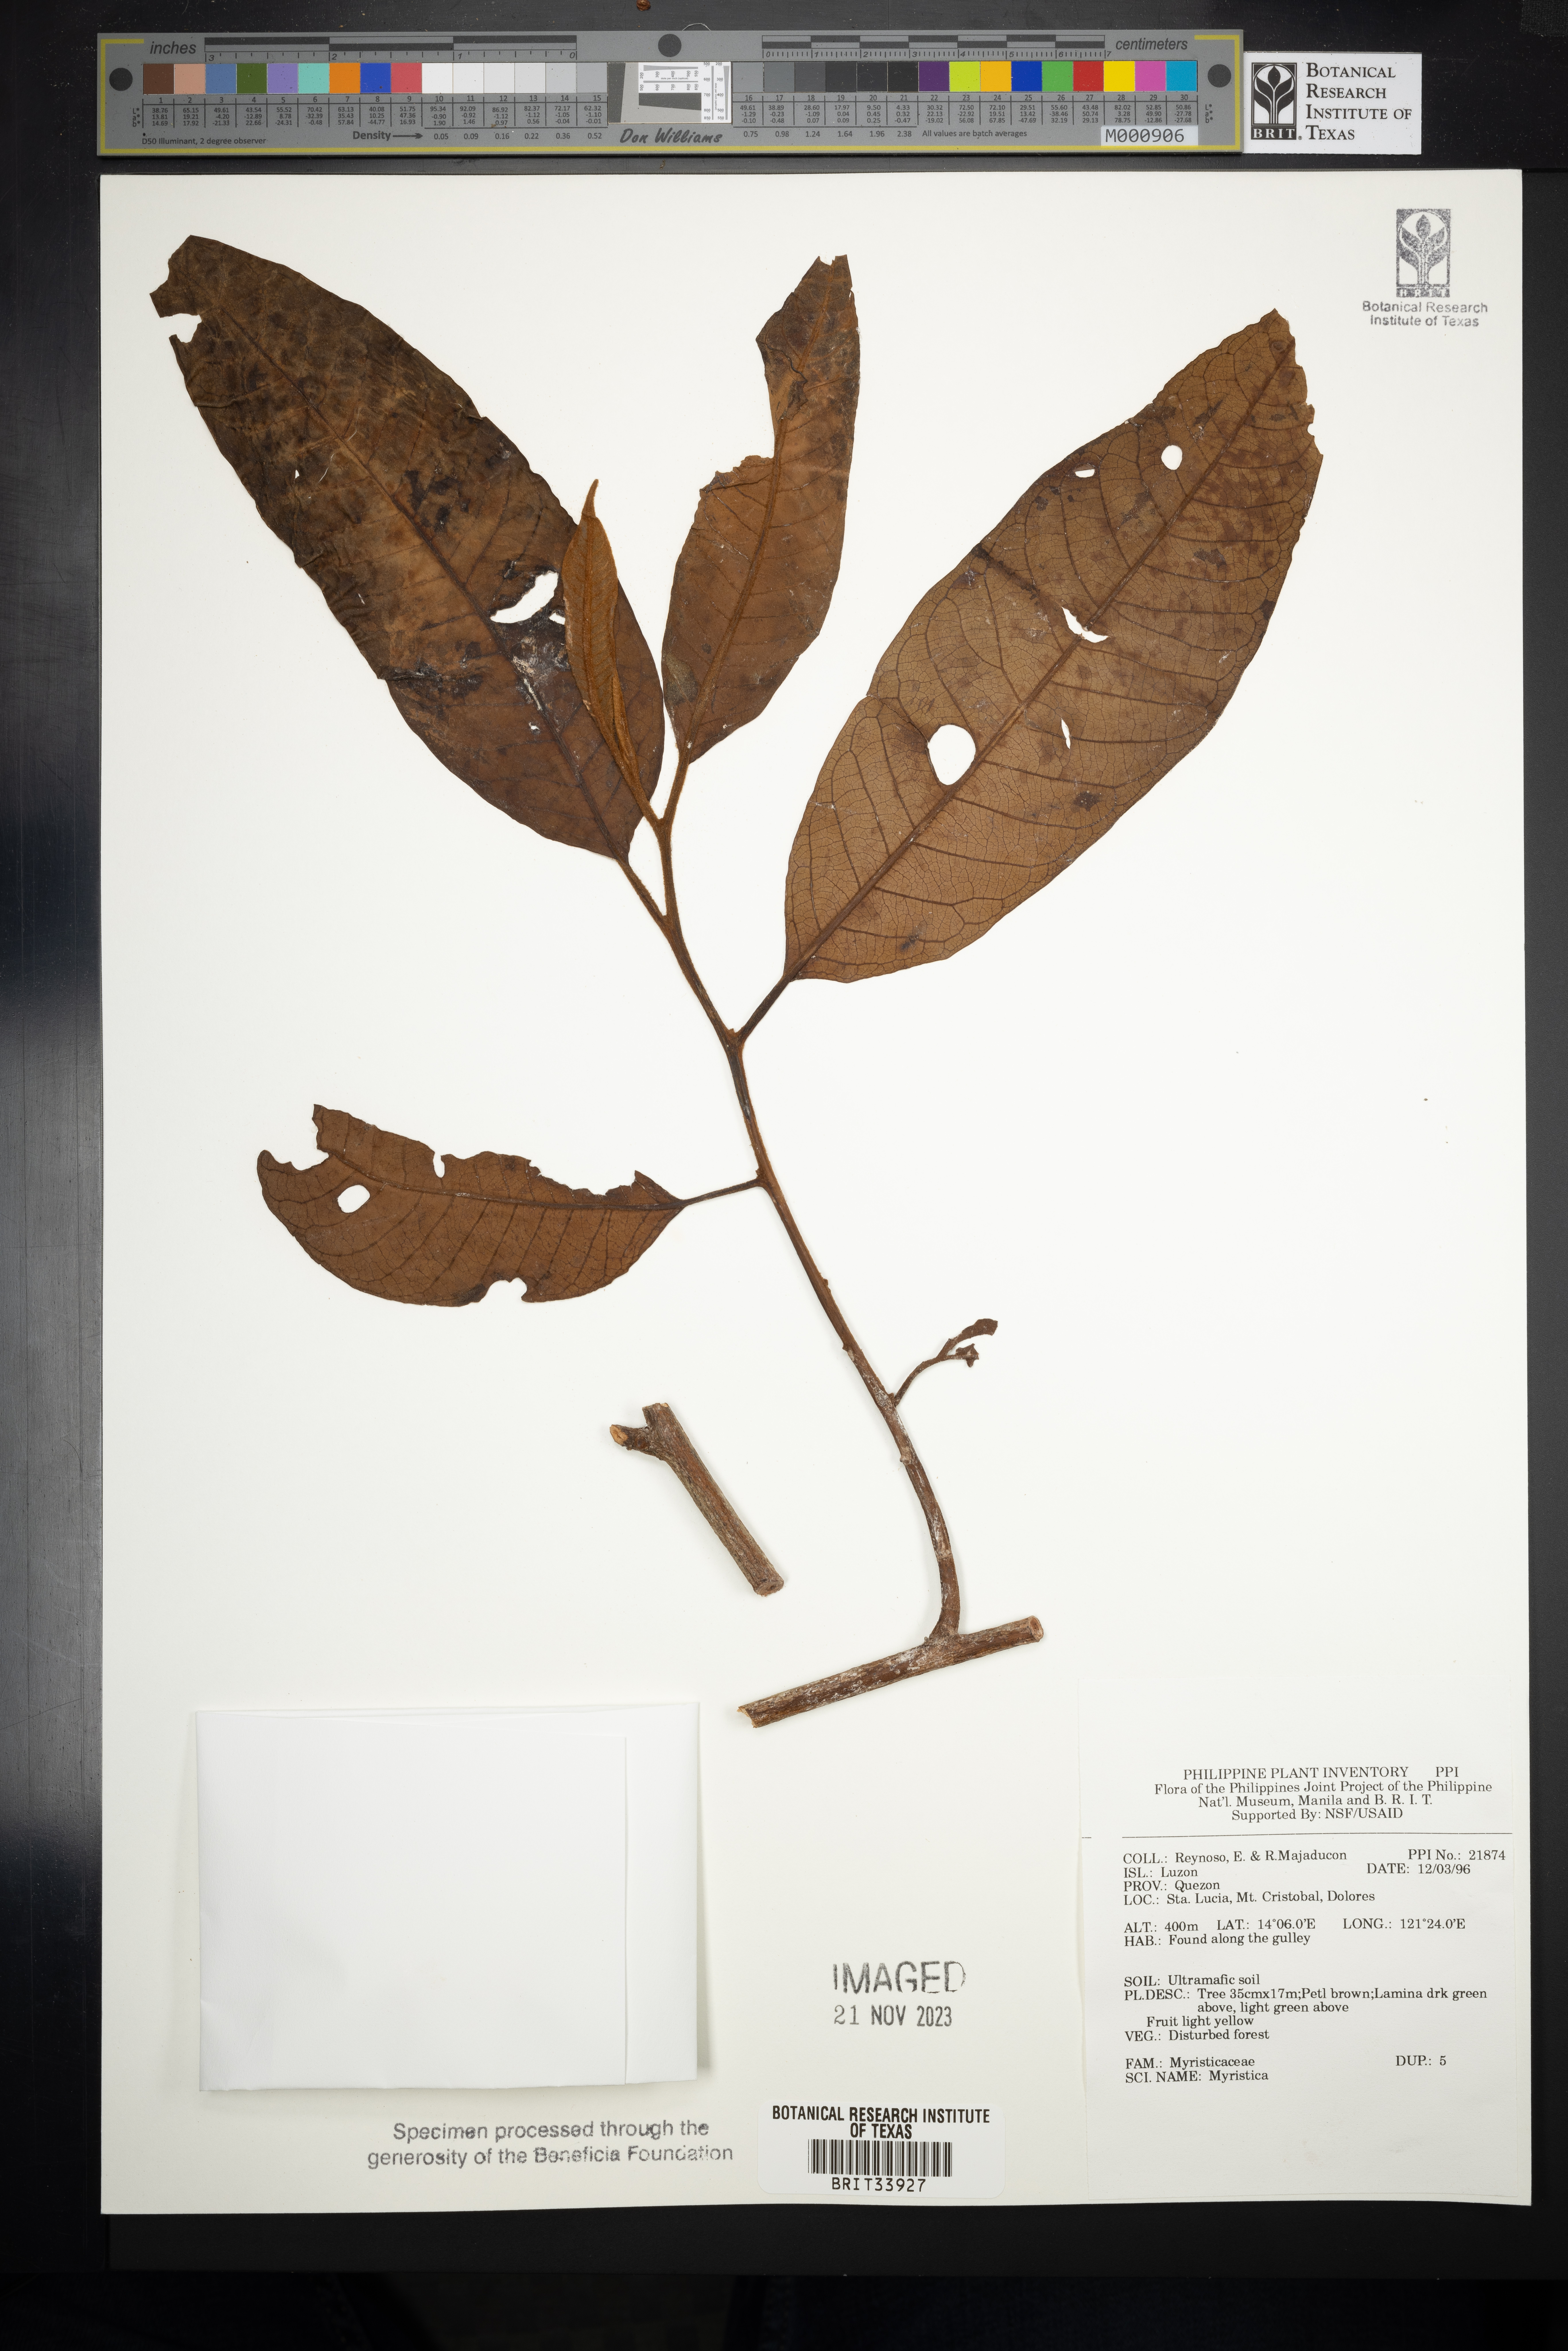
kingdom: Plantae
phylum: Tracheophyta
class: Magnoliopsida
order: Magnoliales
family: Myristicaceae
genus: Myristica
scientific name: Myristica
